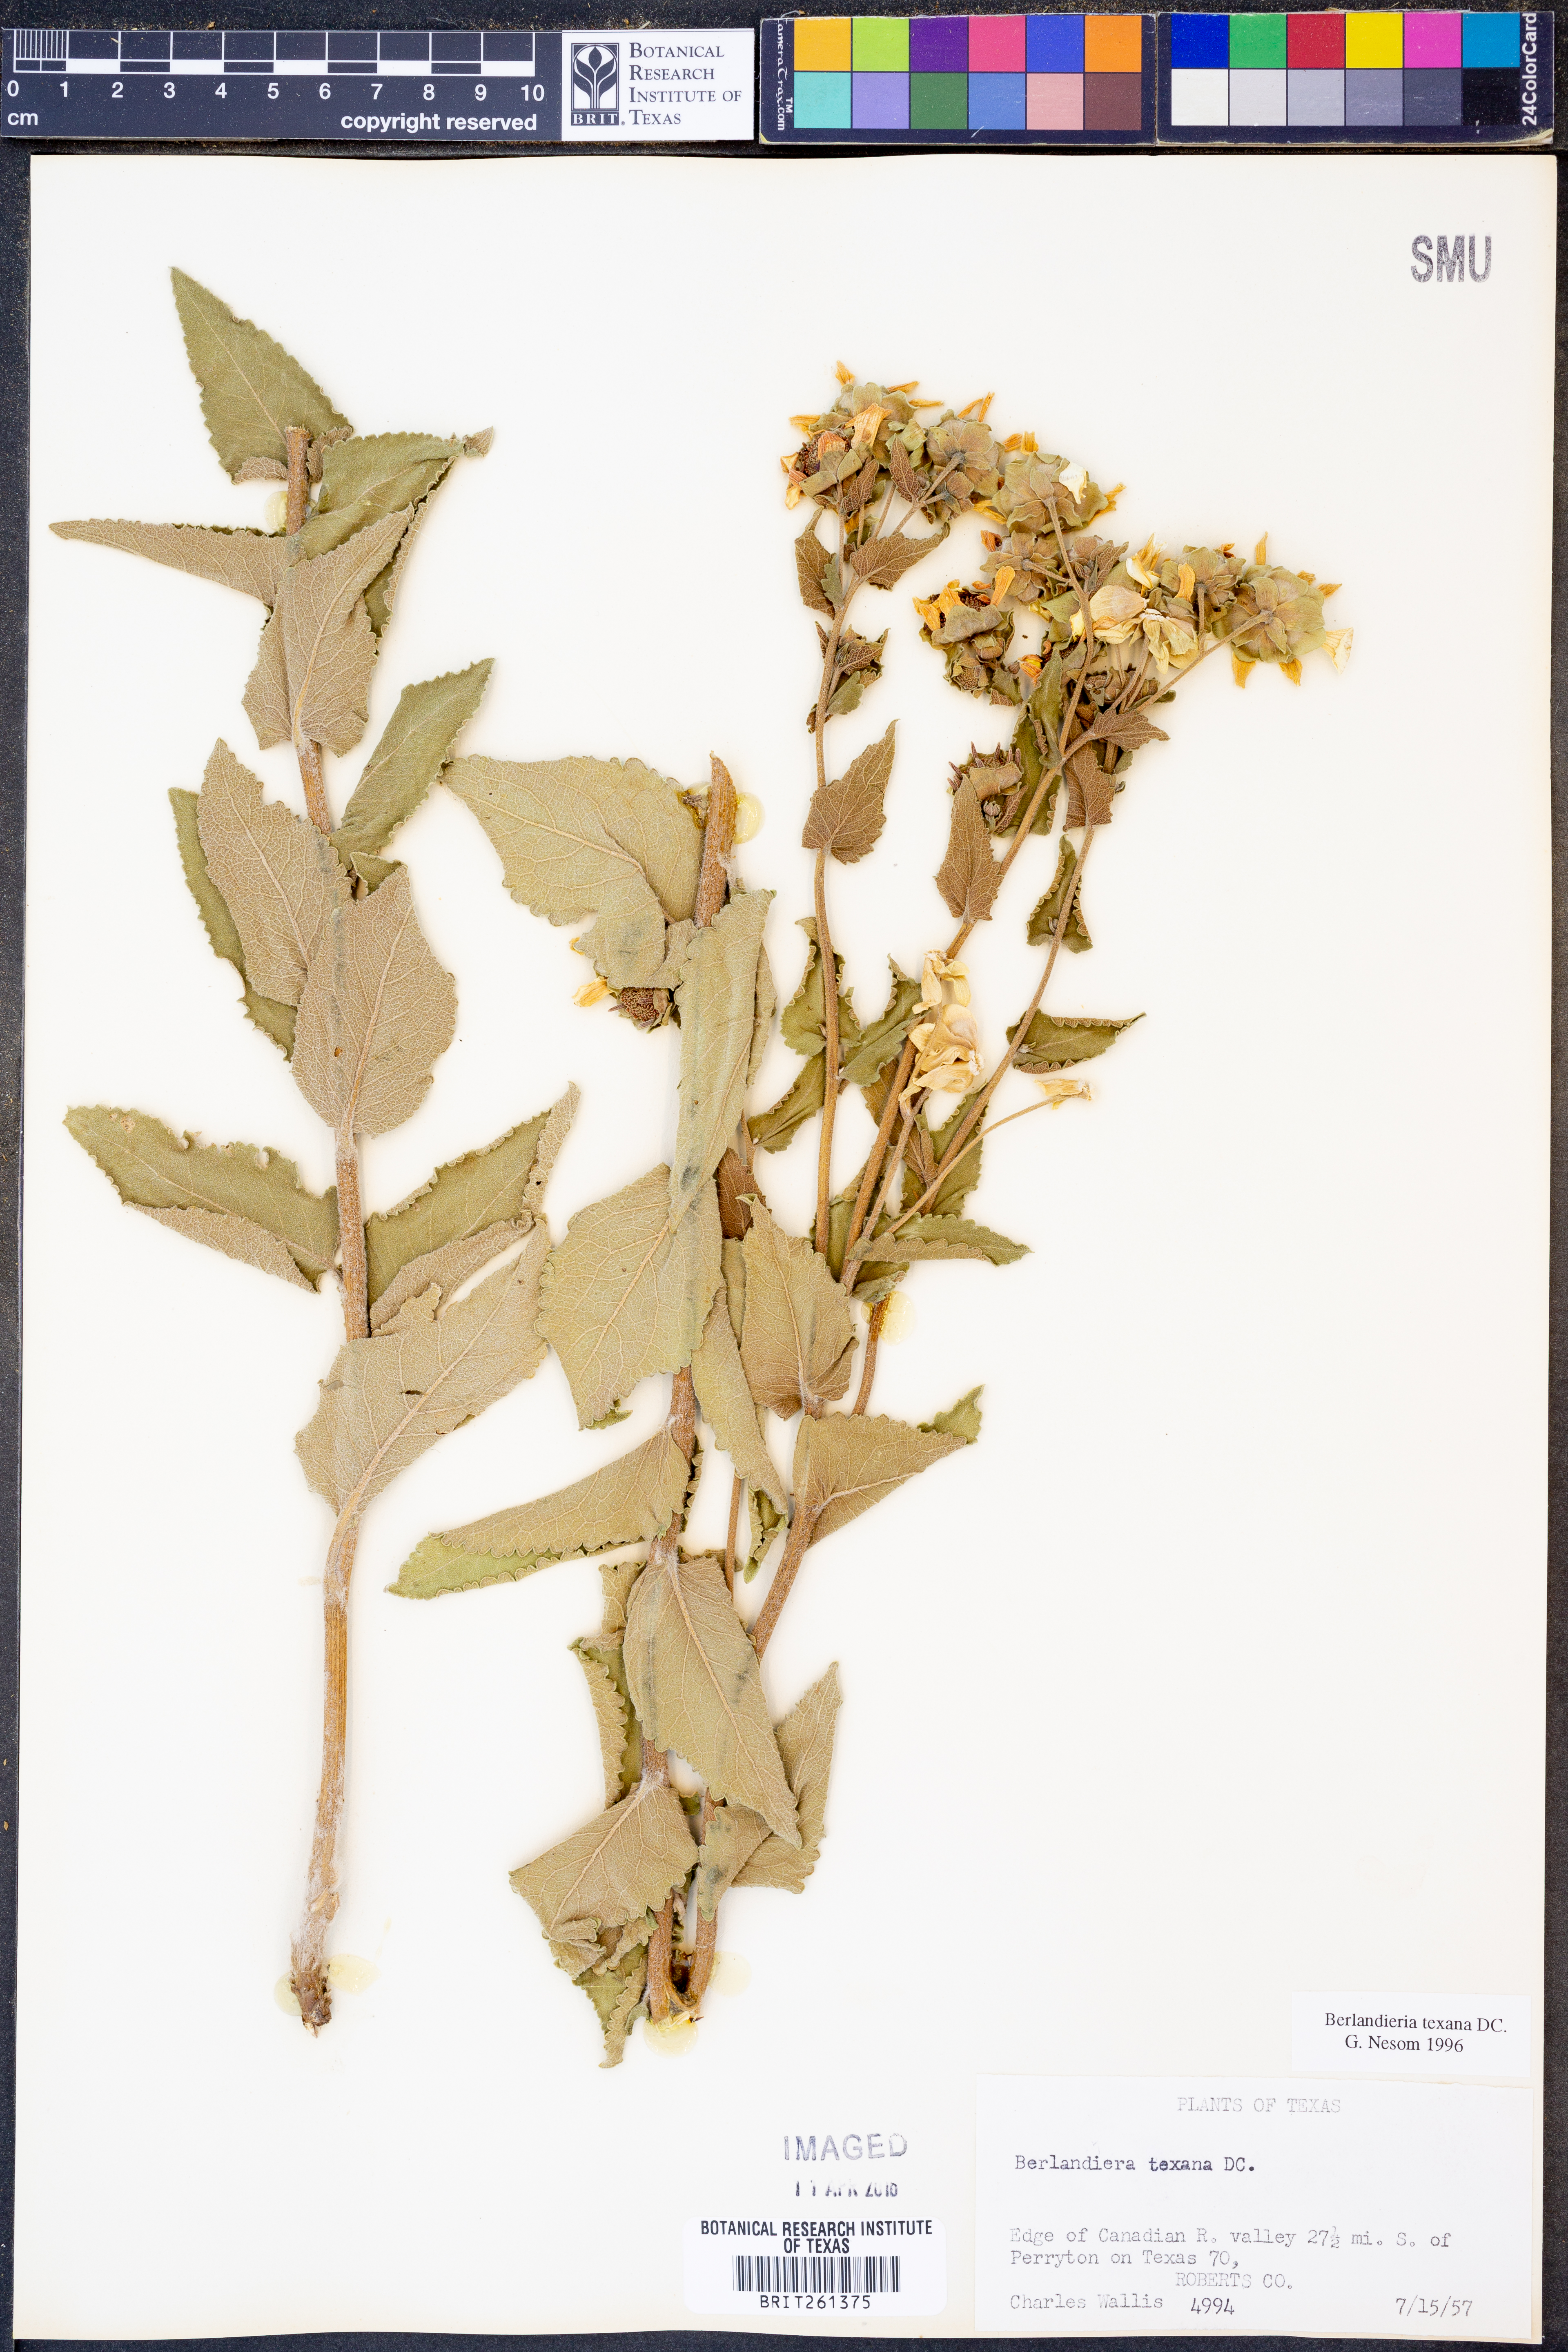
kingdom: Plantae
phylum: Tracheophyta
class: Magnoliopsida
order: Asterales
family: Asteraceae
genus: Berlandiera
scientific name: Berlandiera texana
